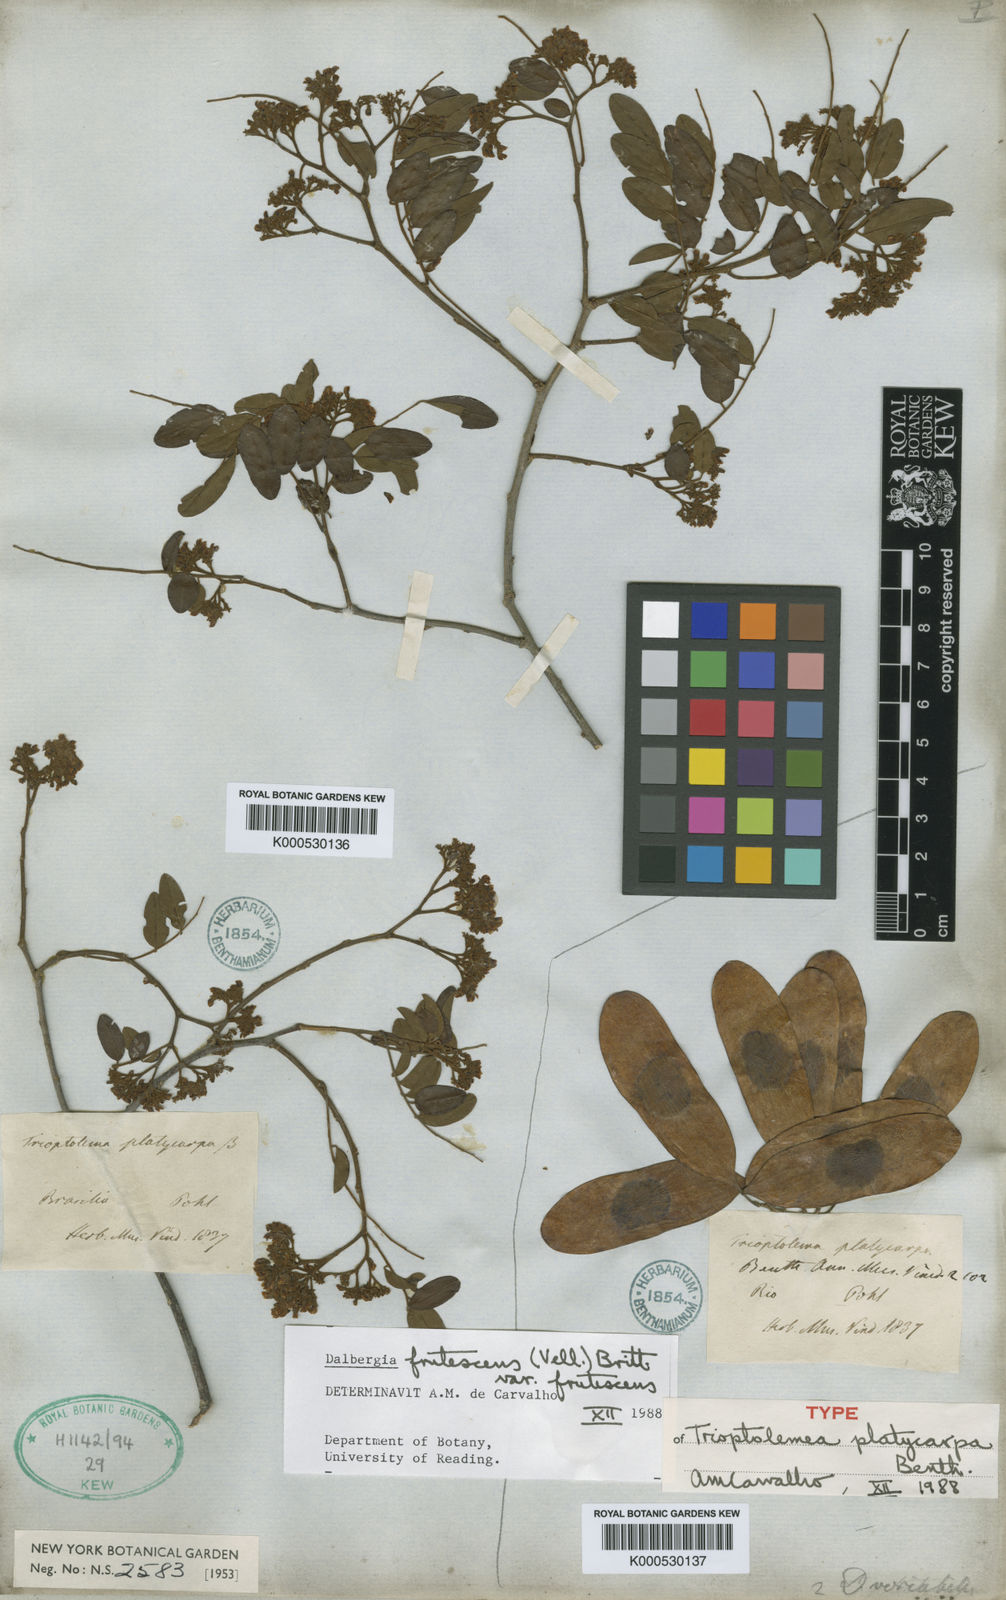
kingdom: Plantae
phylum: Tracheophyta
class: Magnoliopsida
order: Fabales
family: Fabaceae
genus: Dalbergia
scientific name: Dalbergia frutescens
